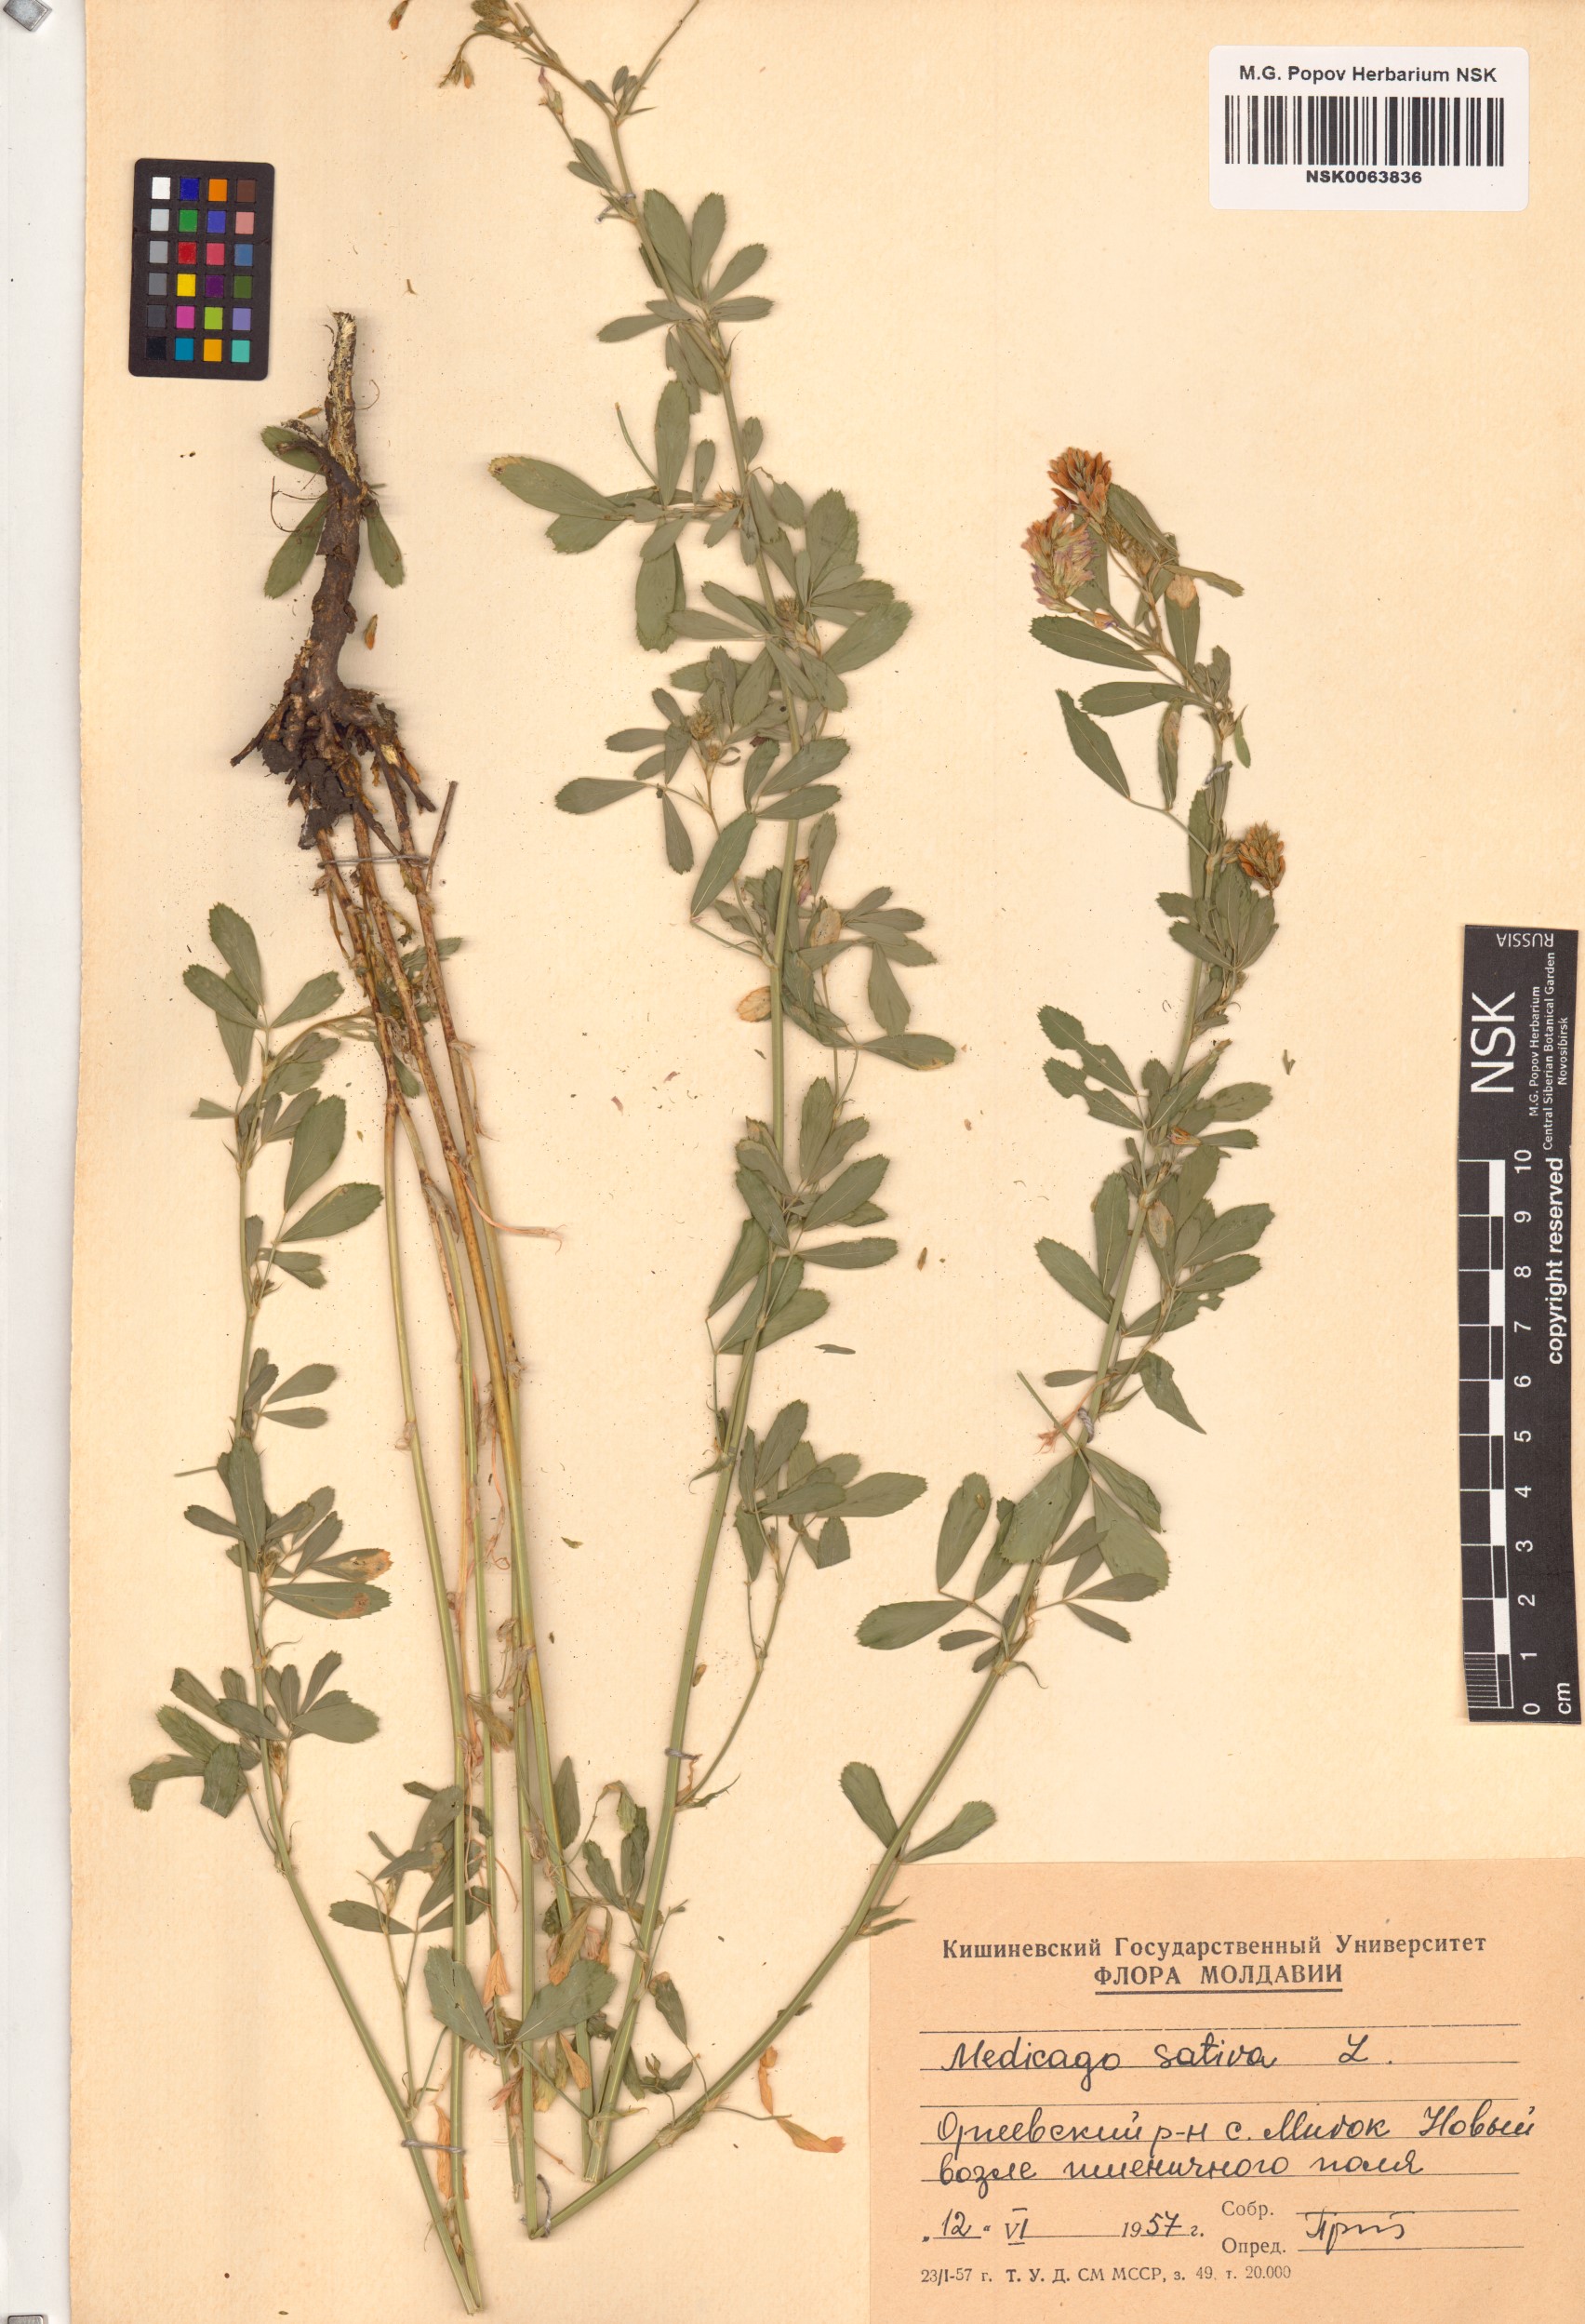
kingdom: Plantae
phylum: Tracheophyta
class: Magnoliopsida
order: Fabales
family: Fabaceae
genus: Medicago
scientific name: Medicago sativa
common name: Alfalfa
